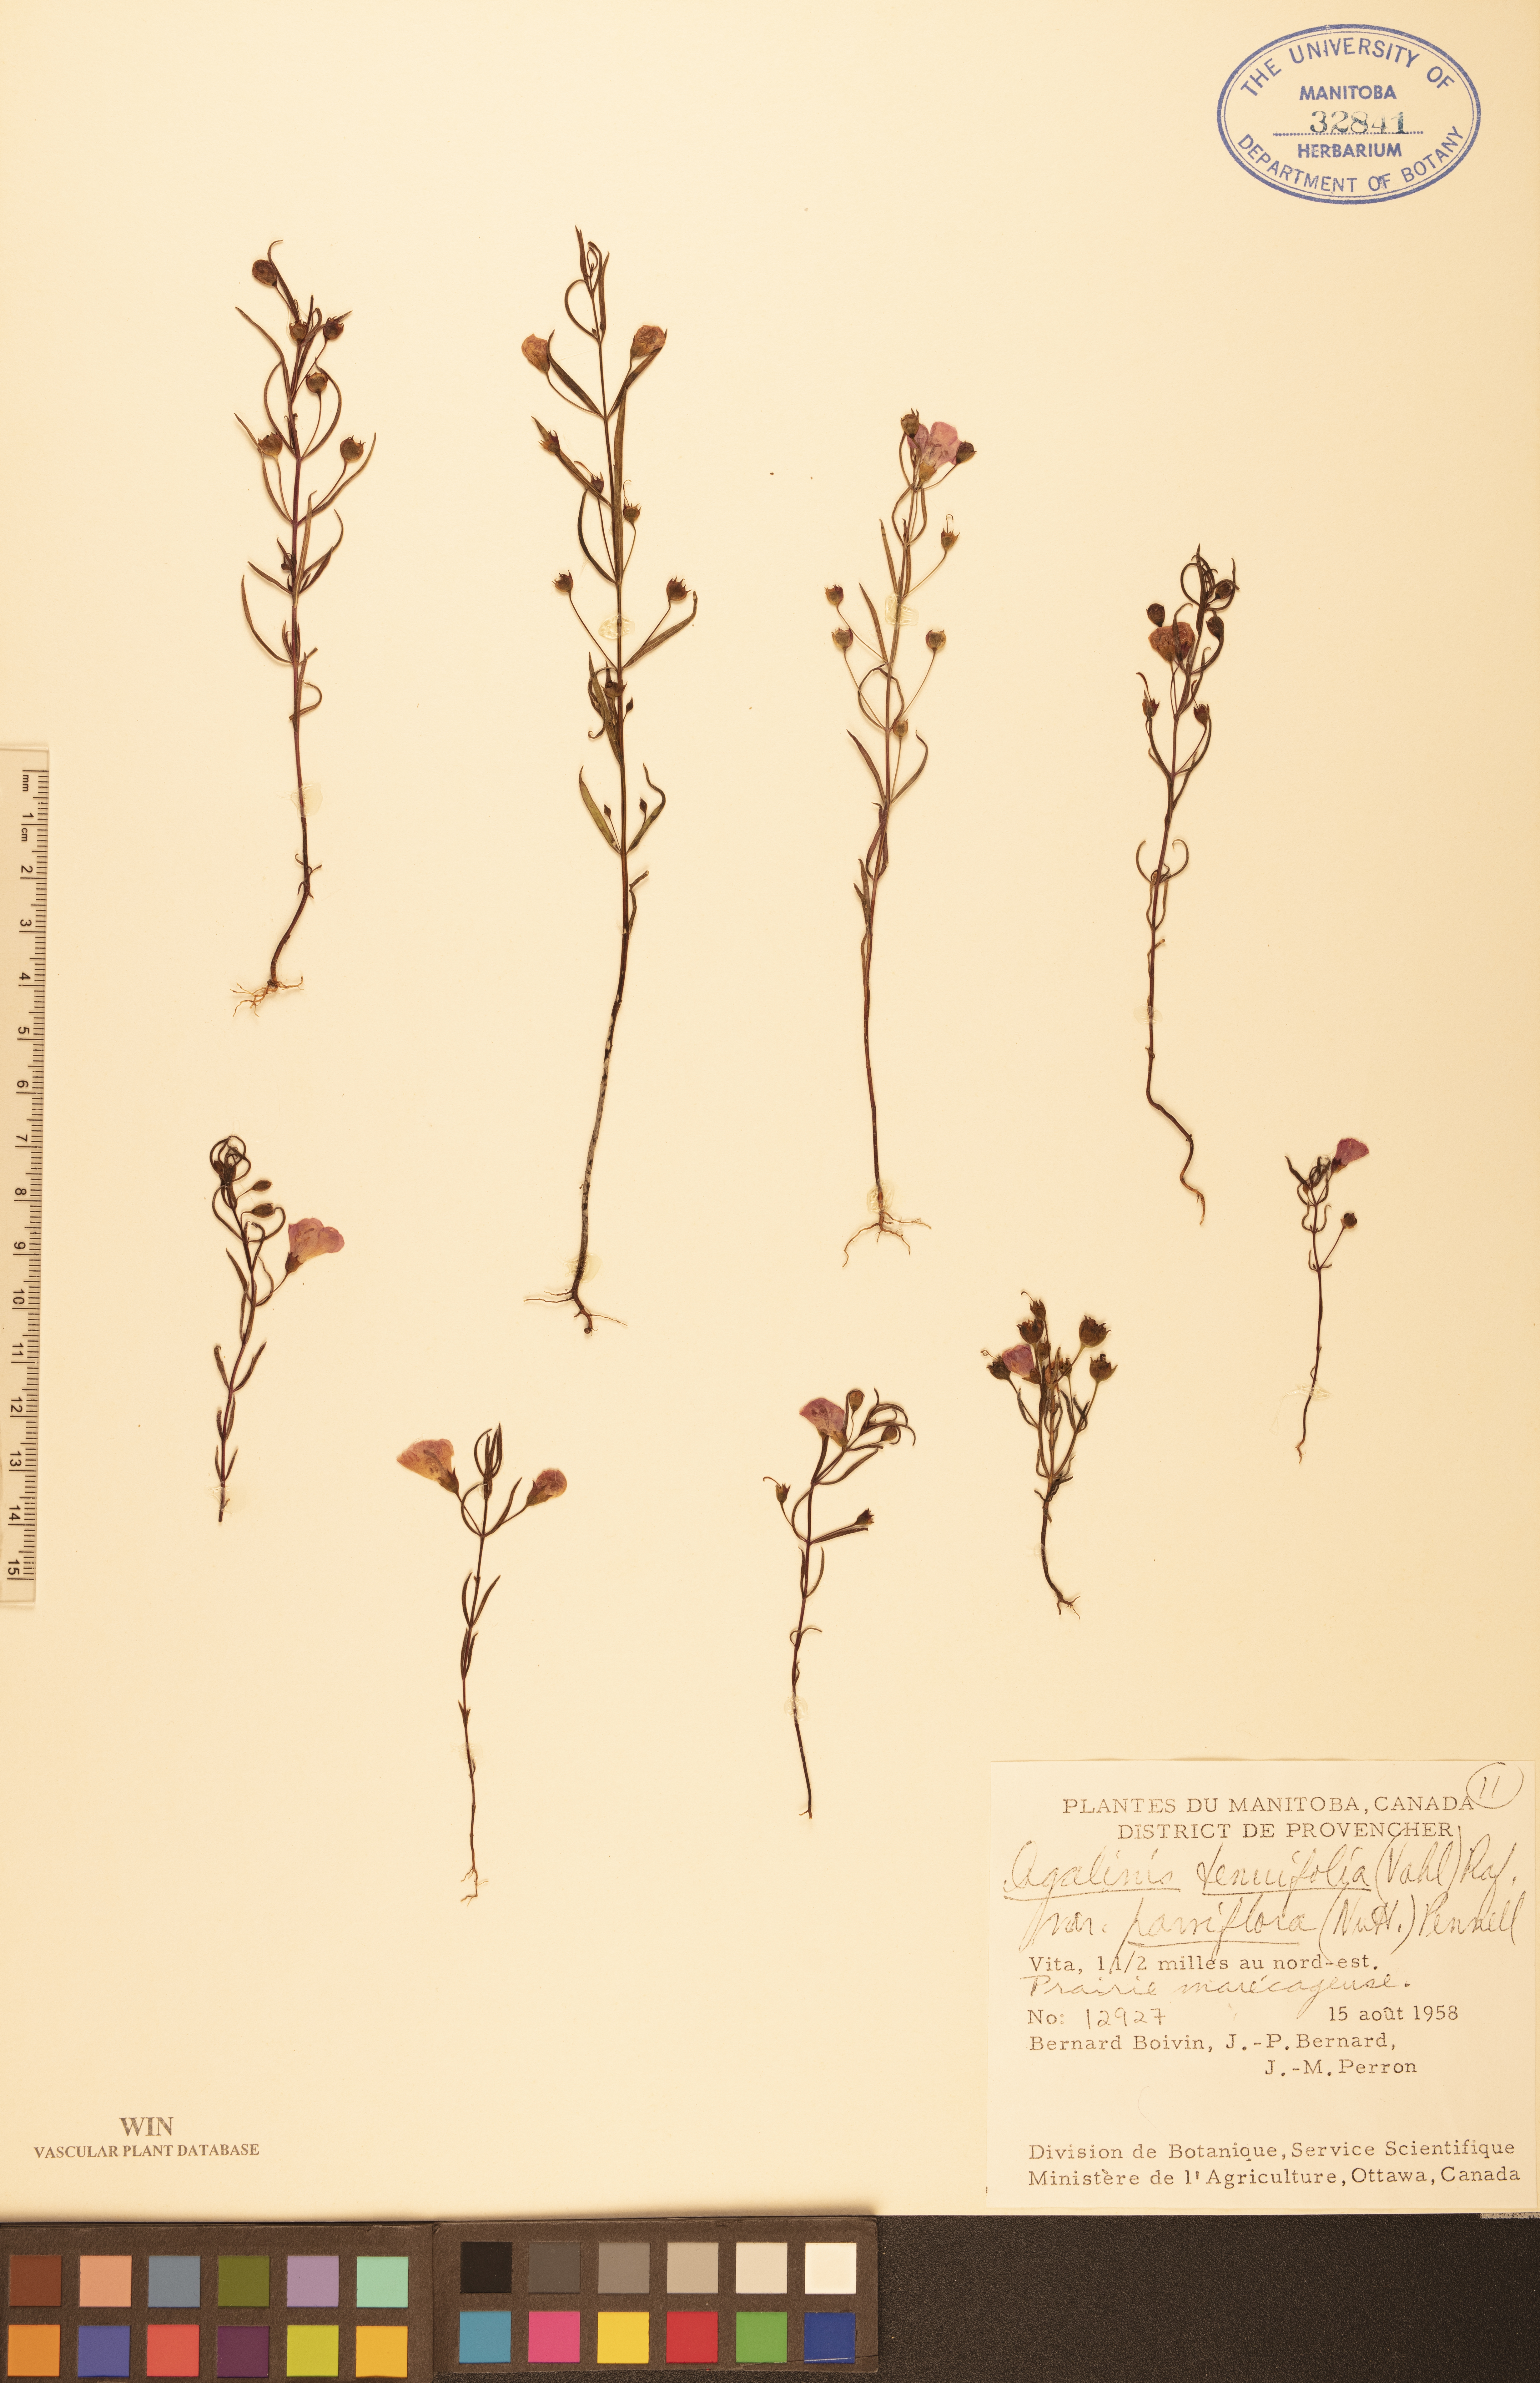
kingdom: Plantae
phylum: Tracheophyta
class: Magnoliopsida
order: Lamiales
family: Orobanchaceae
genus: Agalinis
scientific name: Agalinis tenuifolia
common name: Slender agalinis
